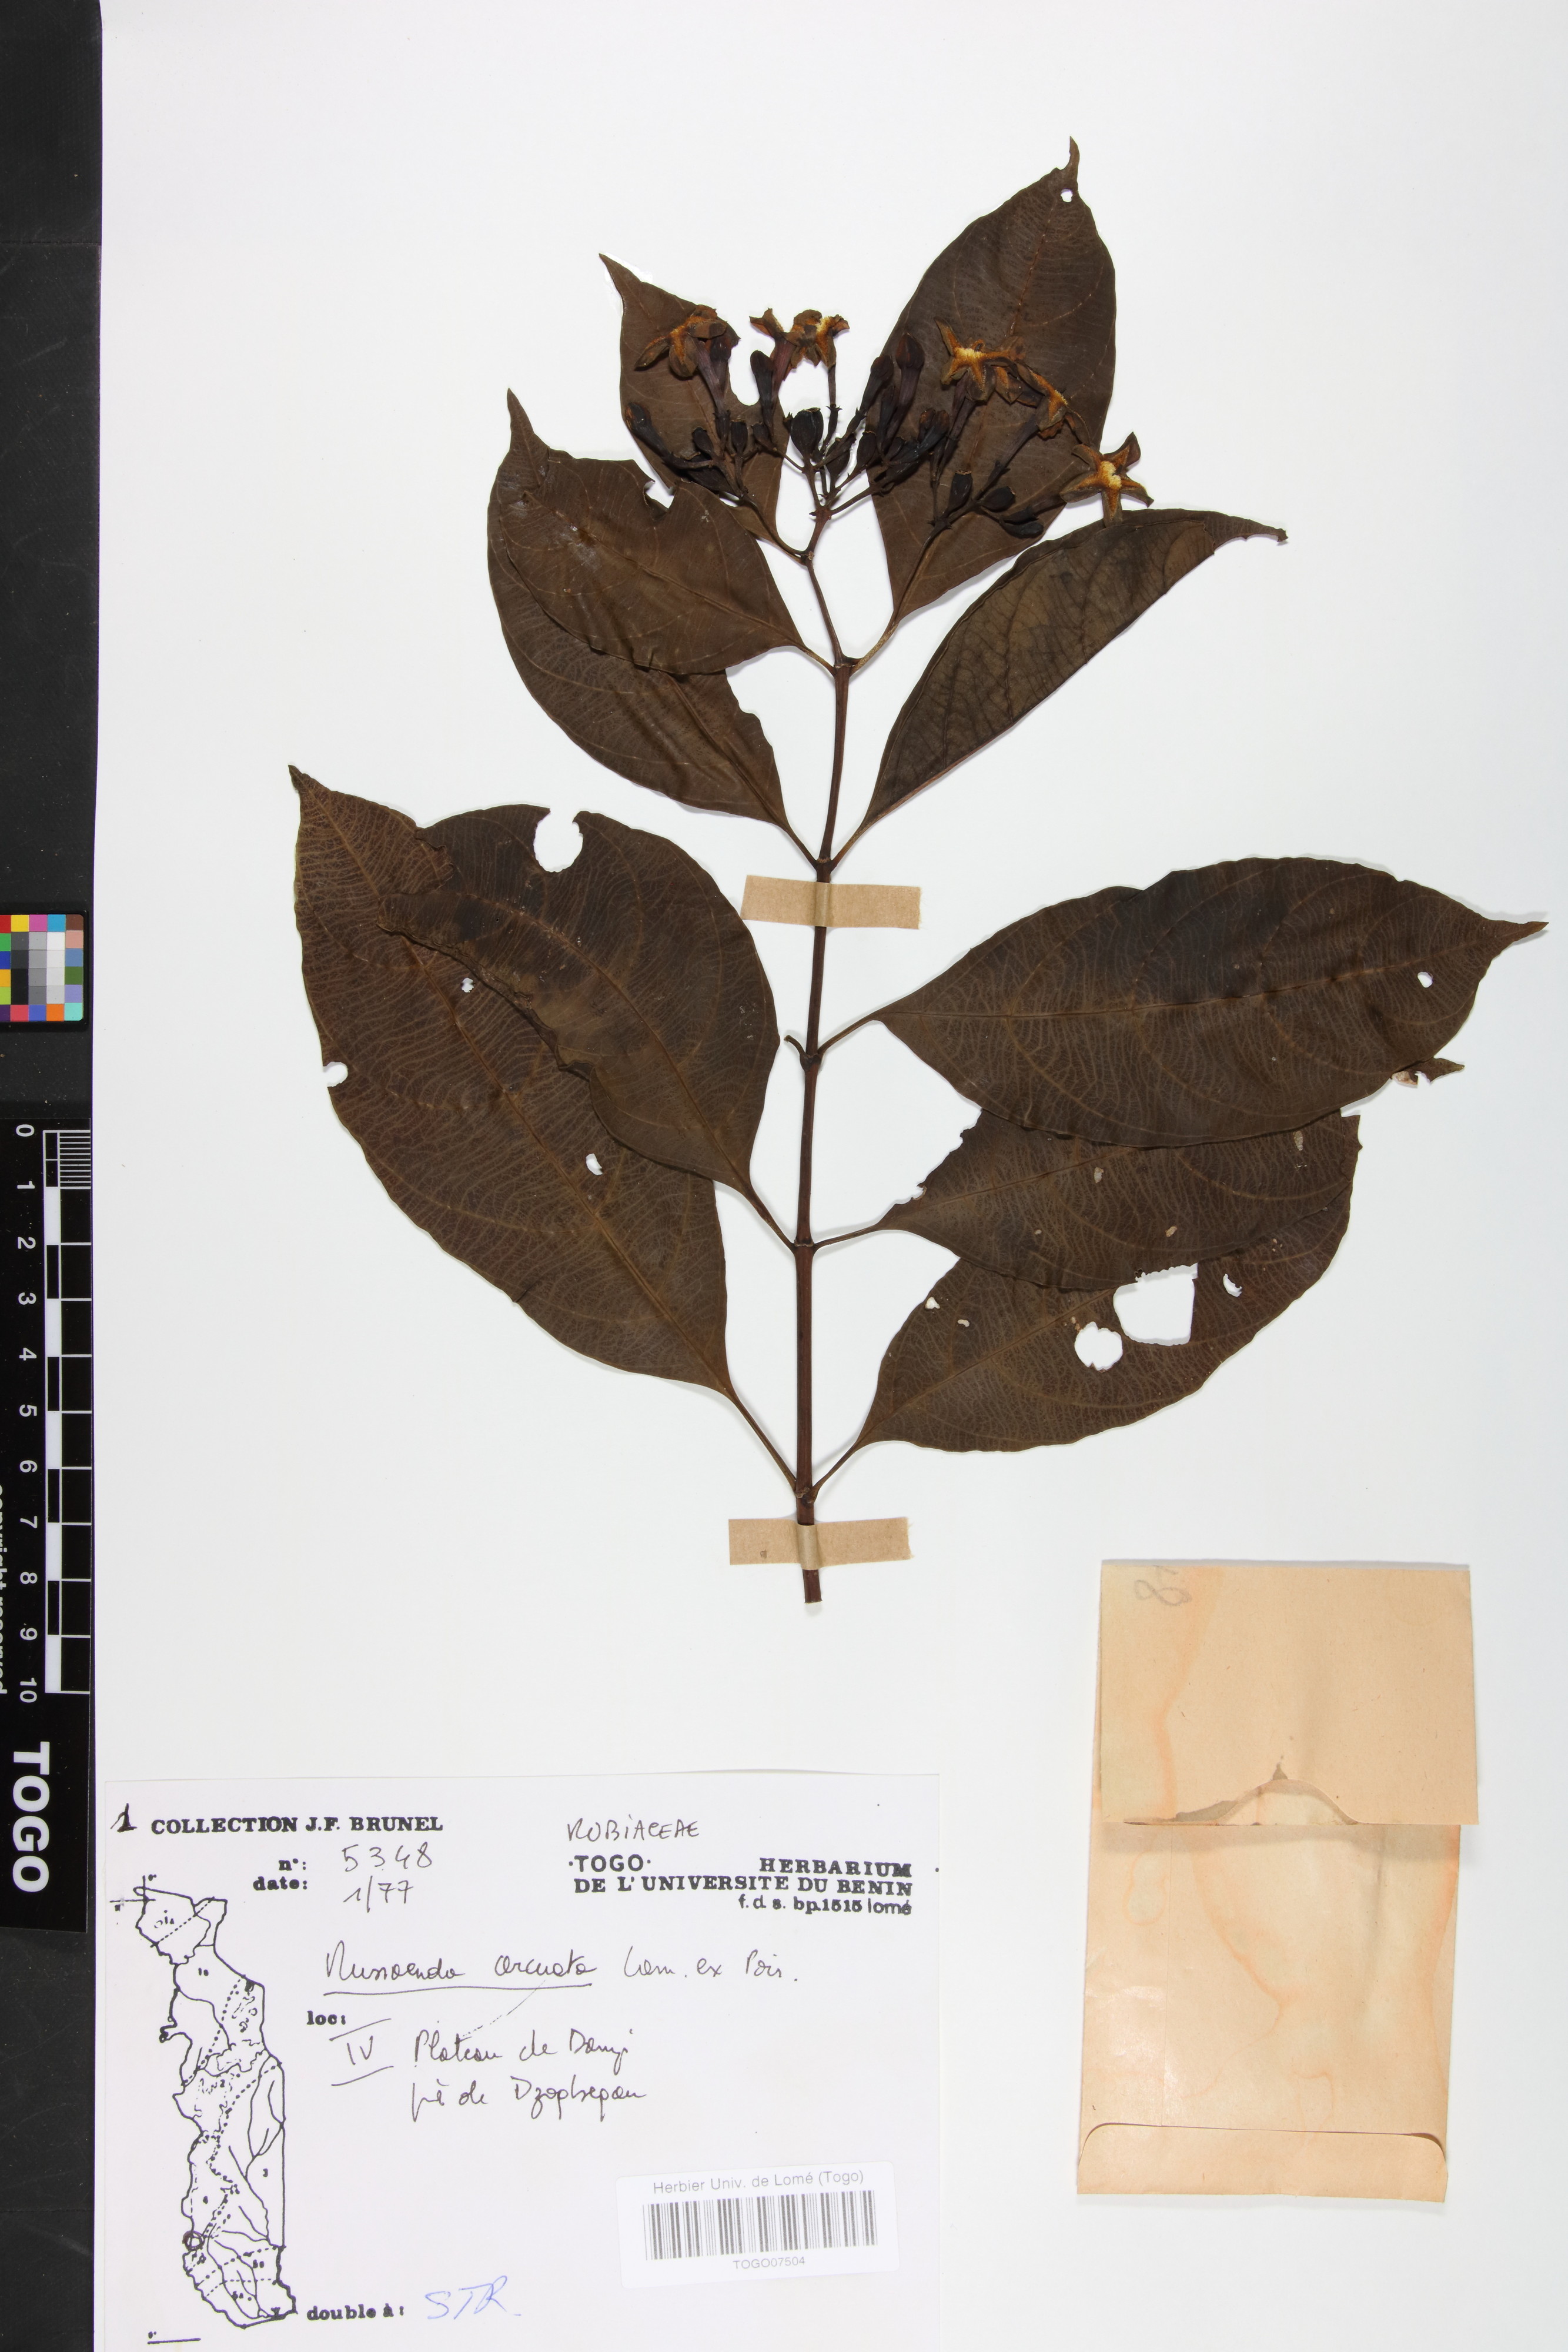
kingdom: Plantae
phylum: Tracheophyta
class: Magnoliopsida
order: Gentianales
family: Rubiaceae
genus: Mussaenda
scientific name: Mussaenda arcuata
